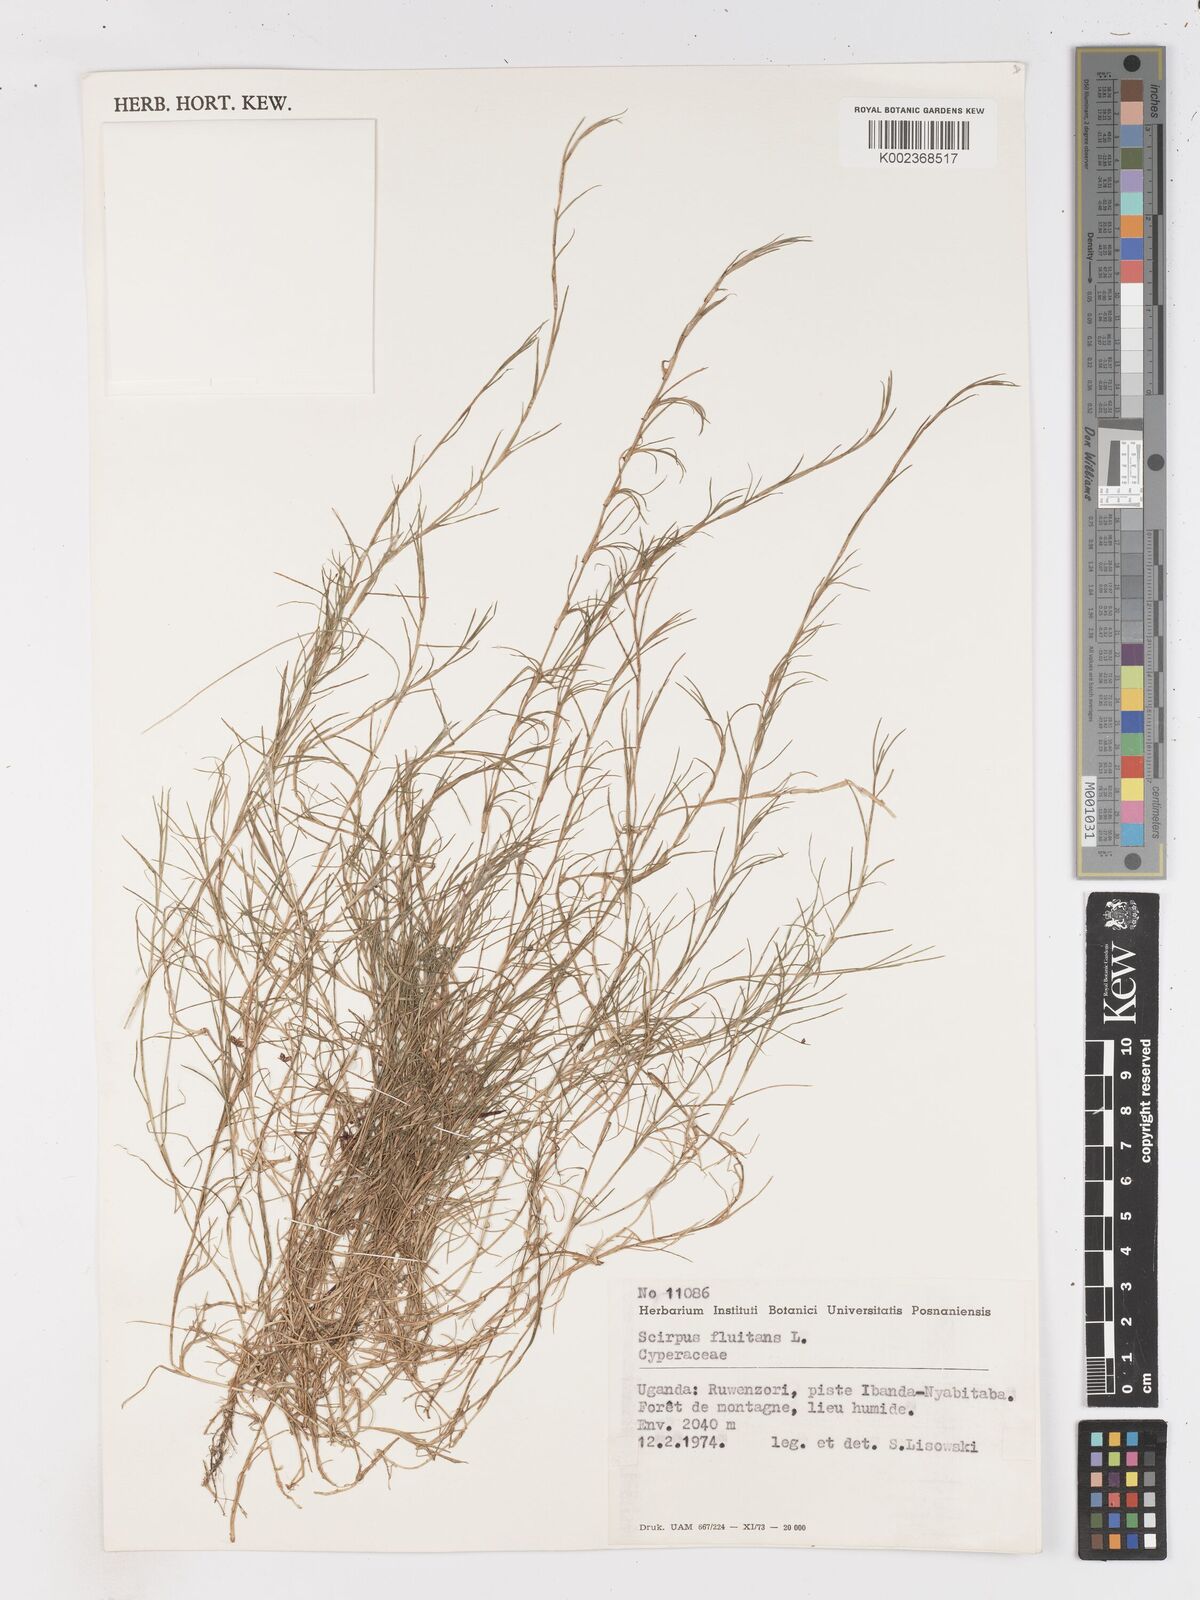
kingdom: Plantae
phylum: Tracheophyta
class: Liliopsida
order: Poales
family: Cyperaceae
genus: Isolepis
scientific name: Isolepis fluitans
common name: Floating club-rush
